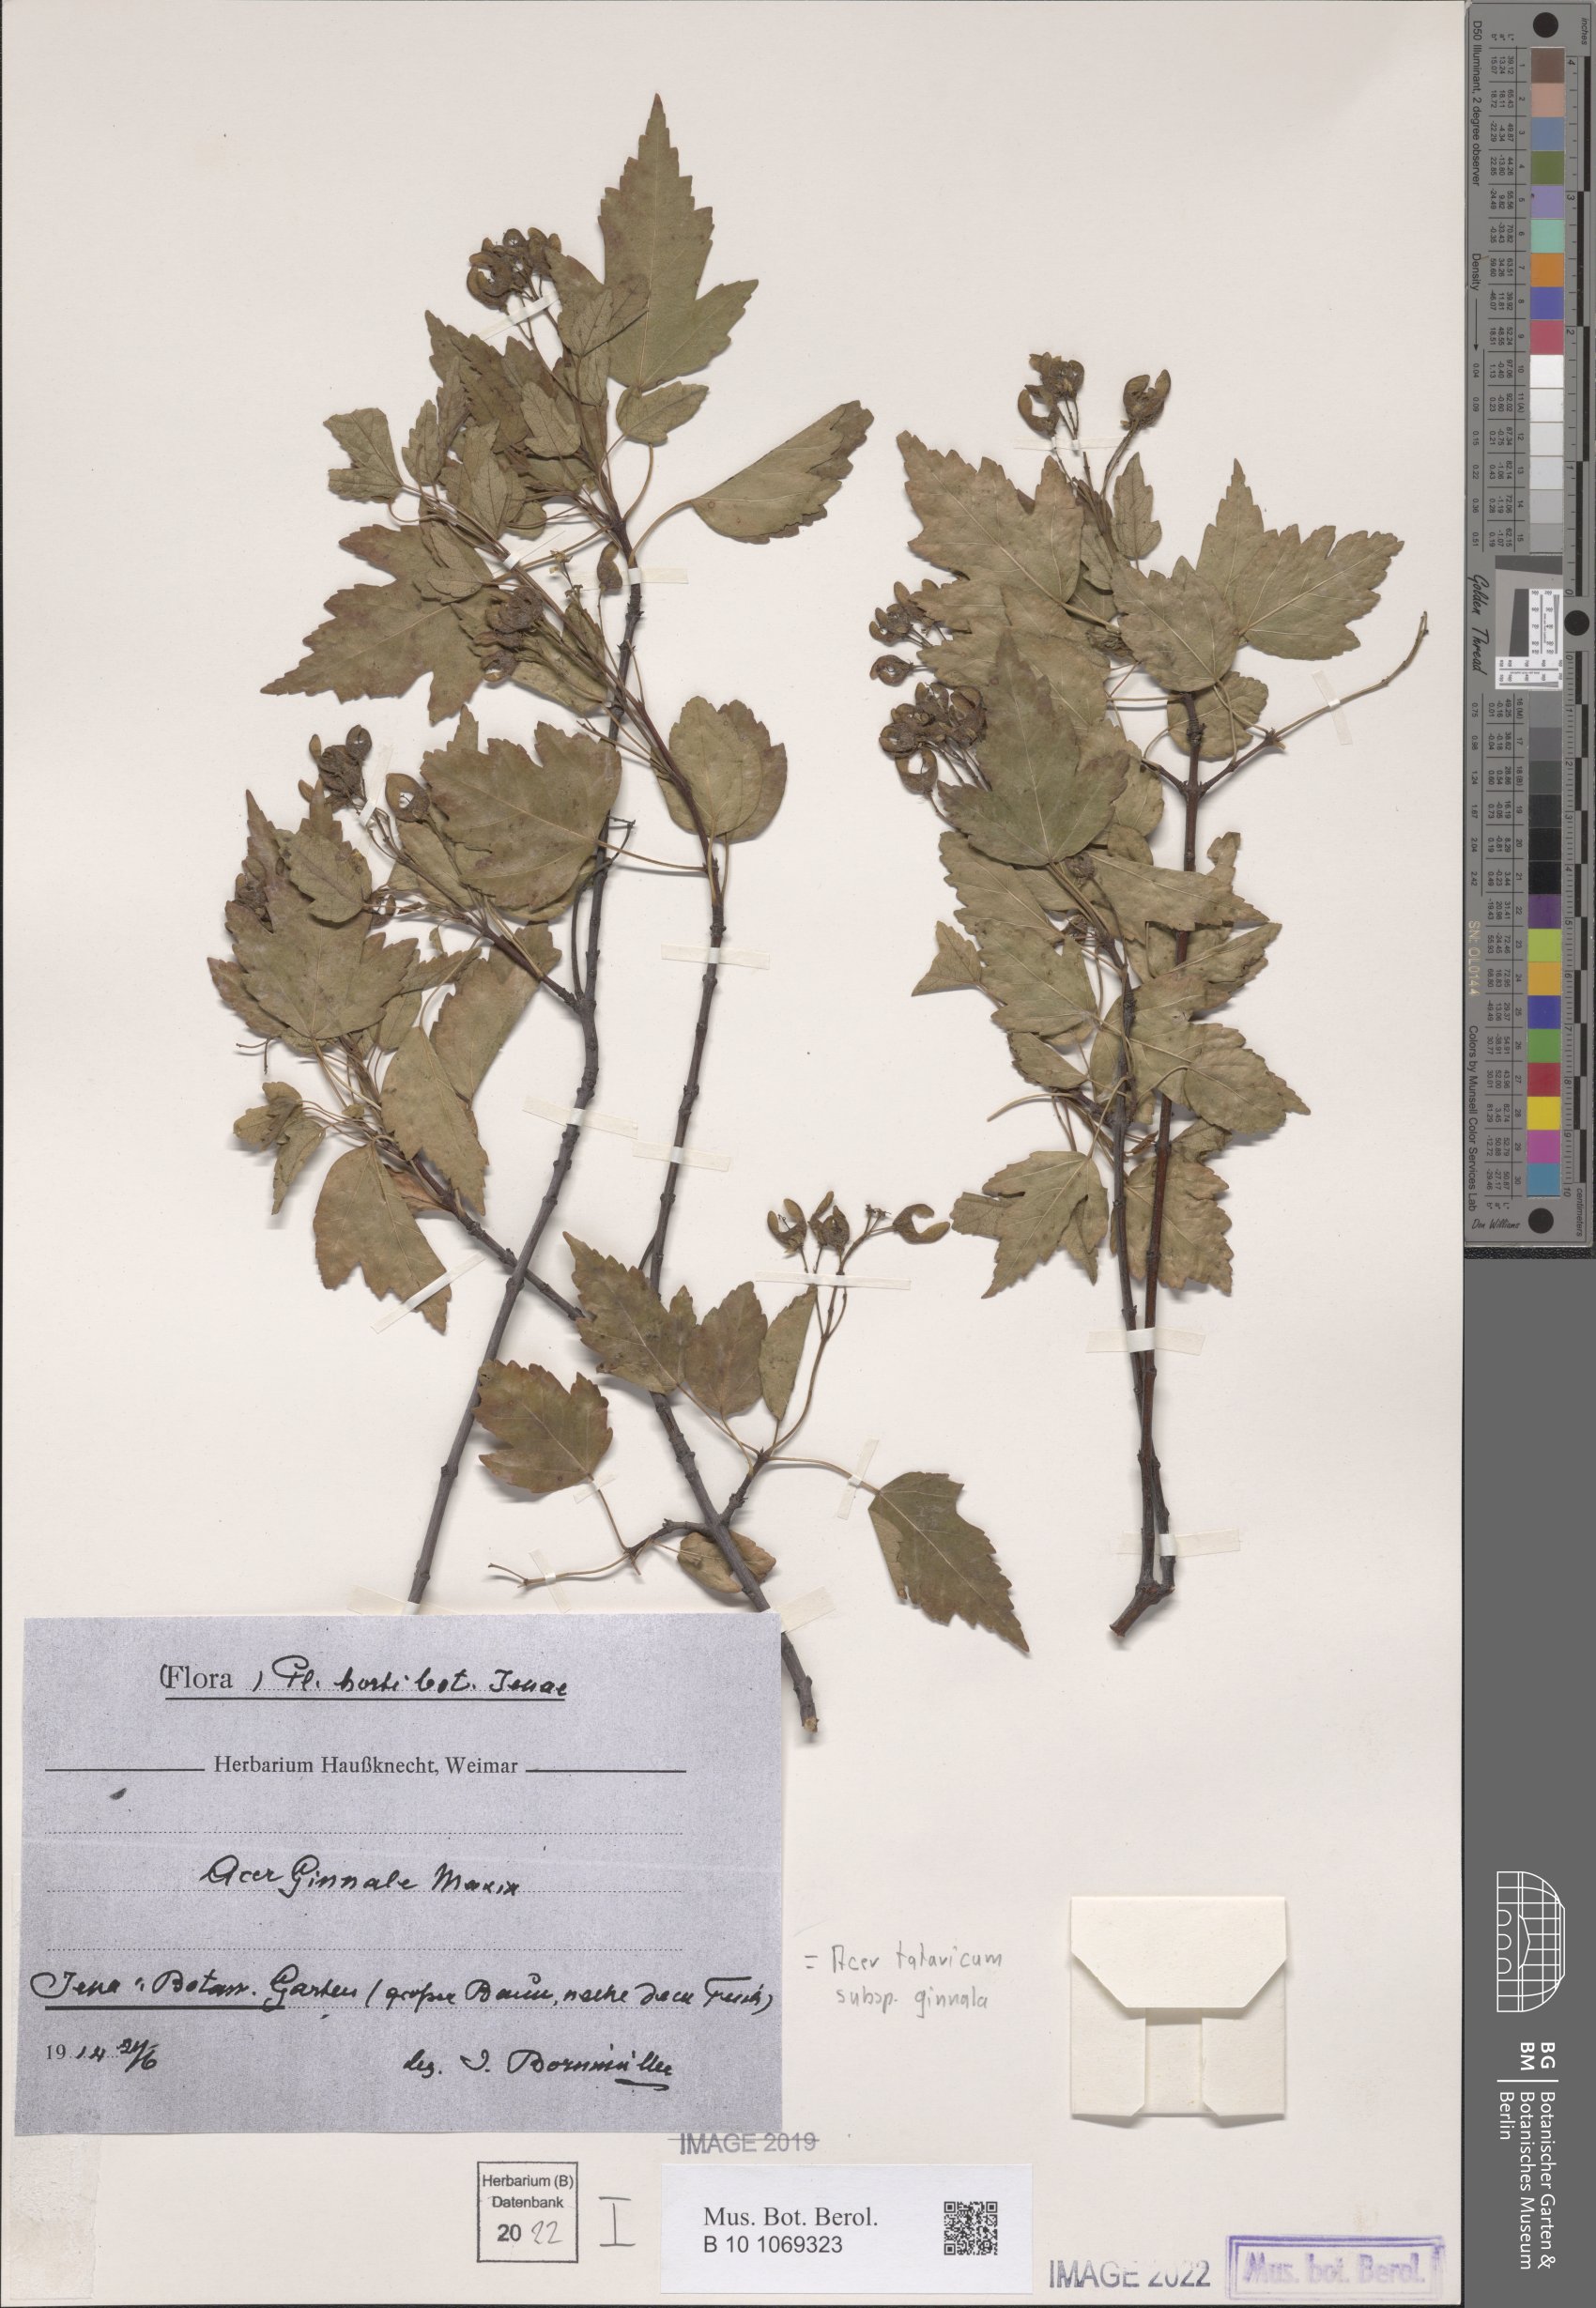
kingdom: Plantae
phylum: Tracheophyta
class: Magnoliopsida
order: Sapindales
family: Sapindaceae
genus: Acer
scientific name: Acer tataricum
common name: Tartar maple
